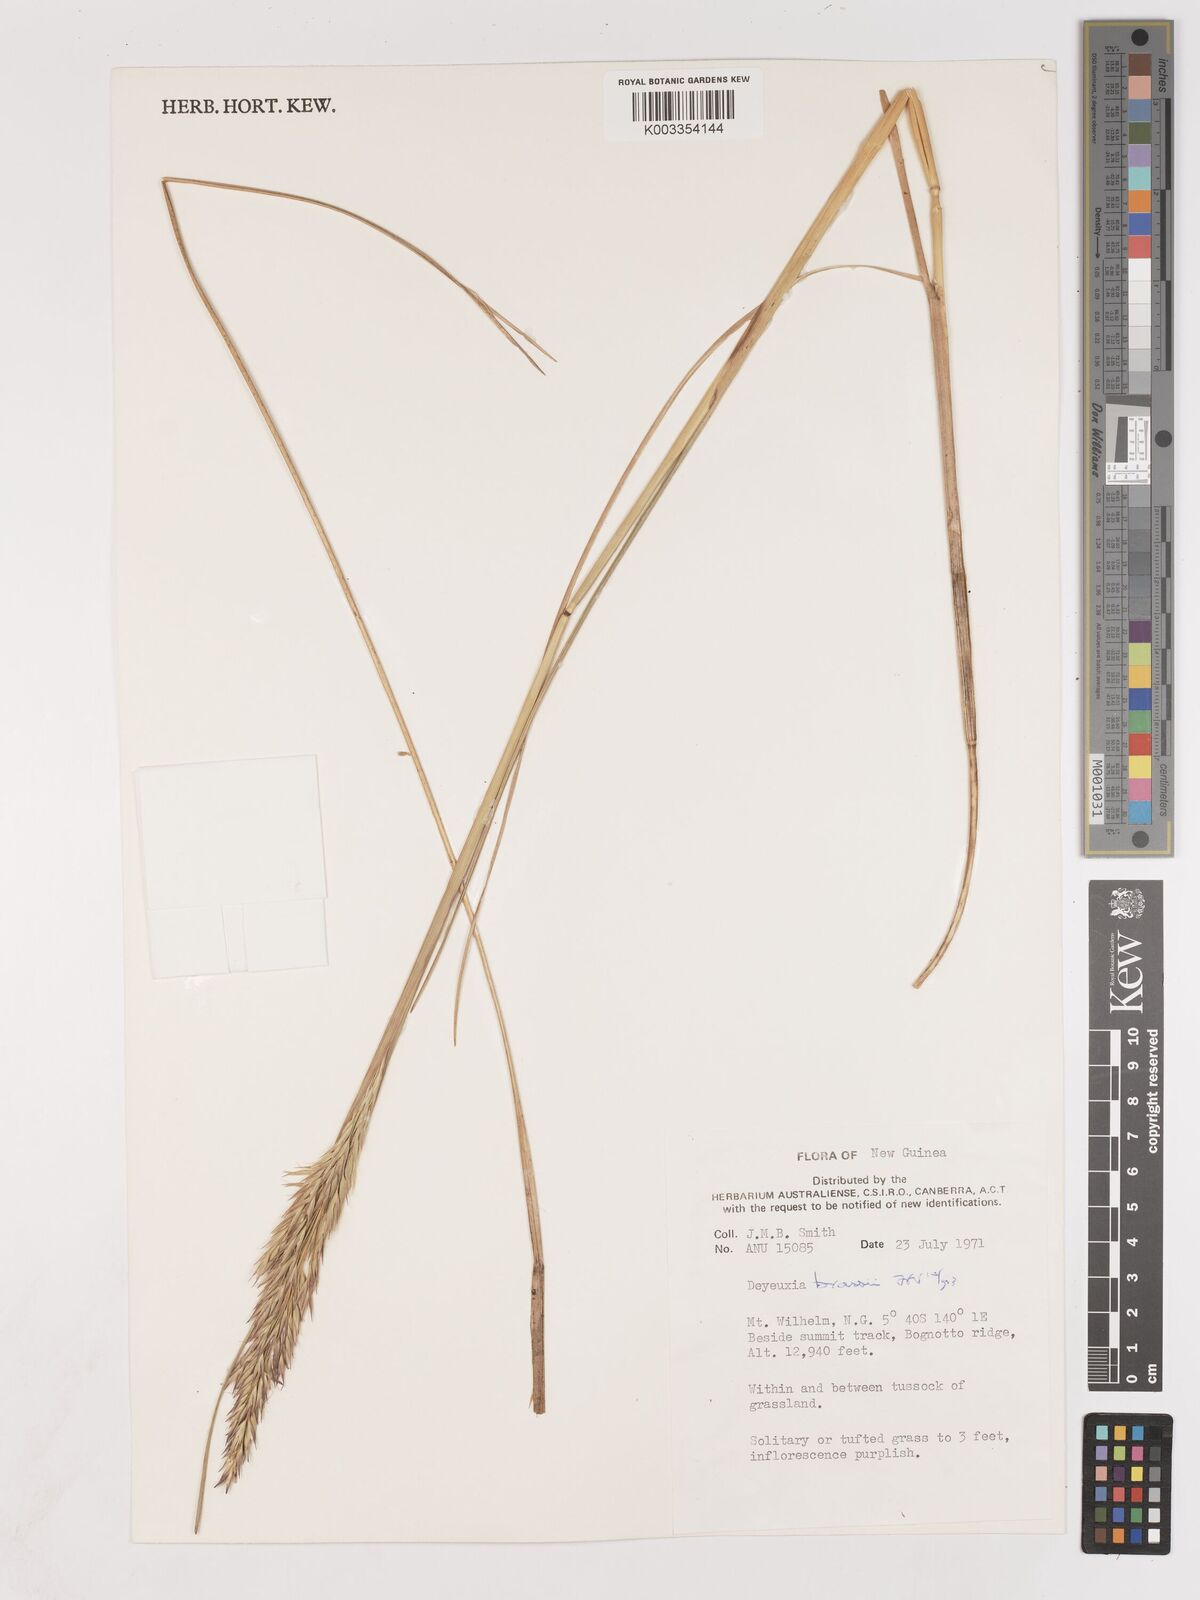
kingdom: Plantae
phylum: Tracheophyta
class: Liliopsida
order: Poales
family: Poaceae
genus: Calamagrostis
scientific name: Calamagrostis brassii
